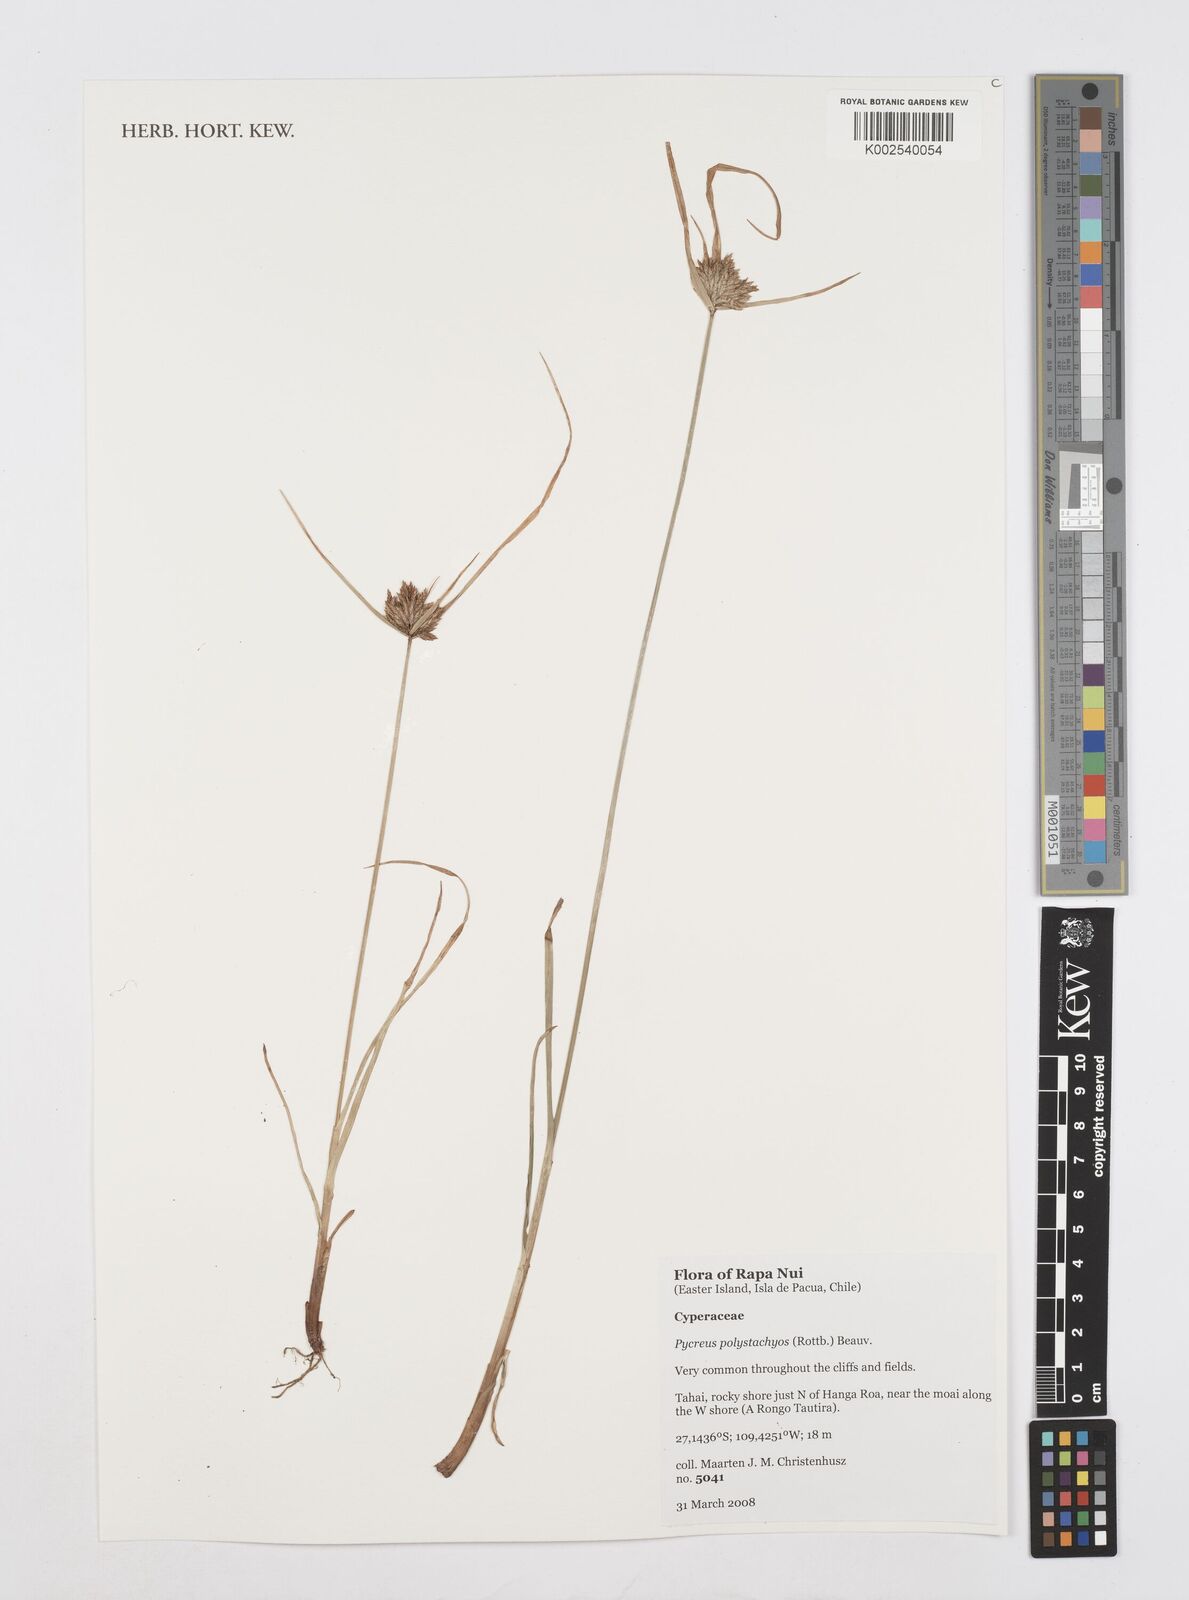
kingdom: Plantae
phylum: Tracheophyta
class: Liliopsida
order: Poales
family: Cyperaceae
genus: Cyperus
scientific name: Cyperus polystachyos
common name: Bunchy flat sedge
